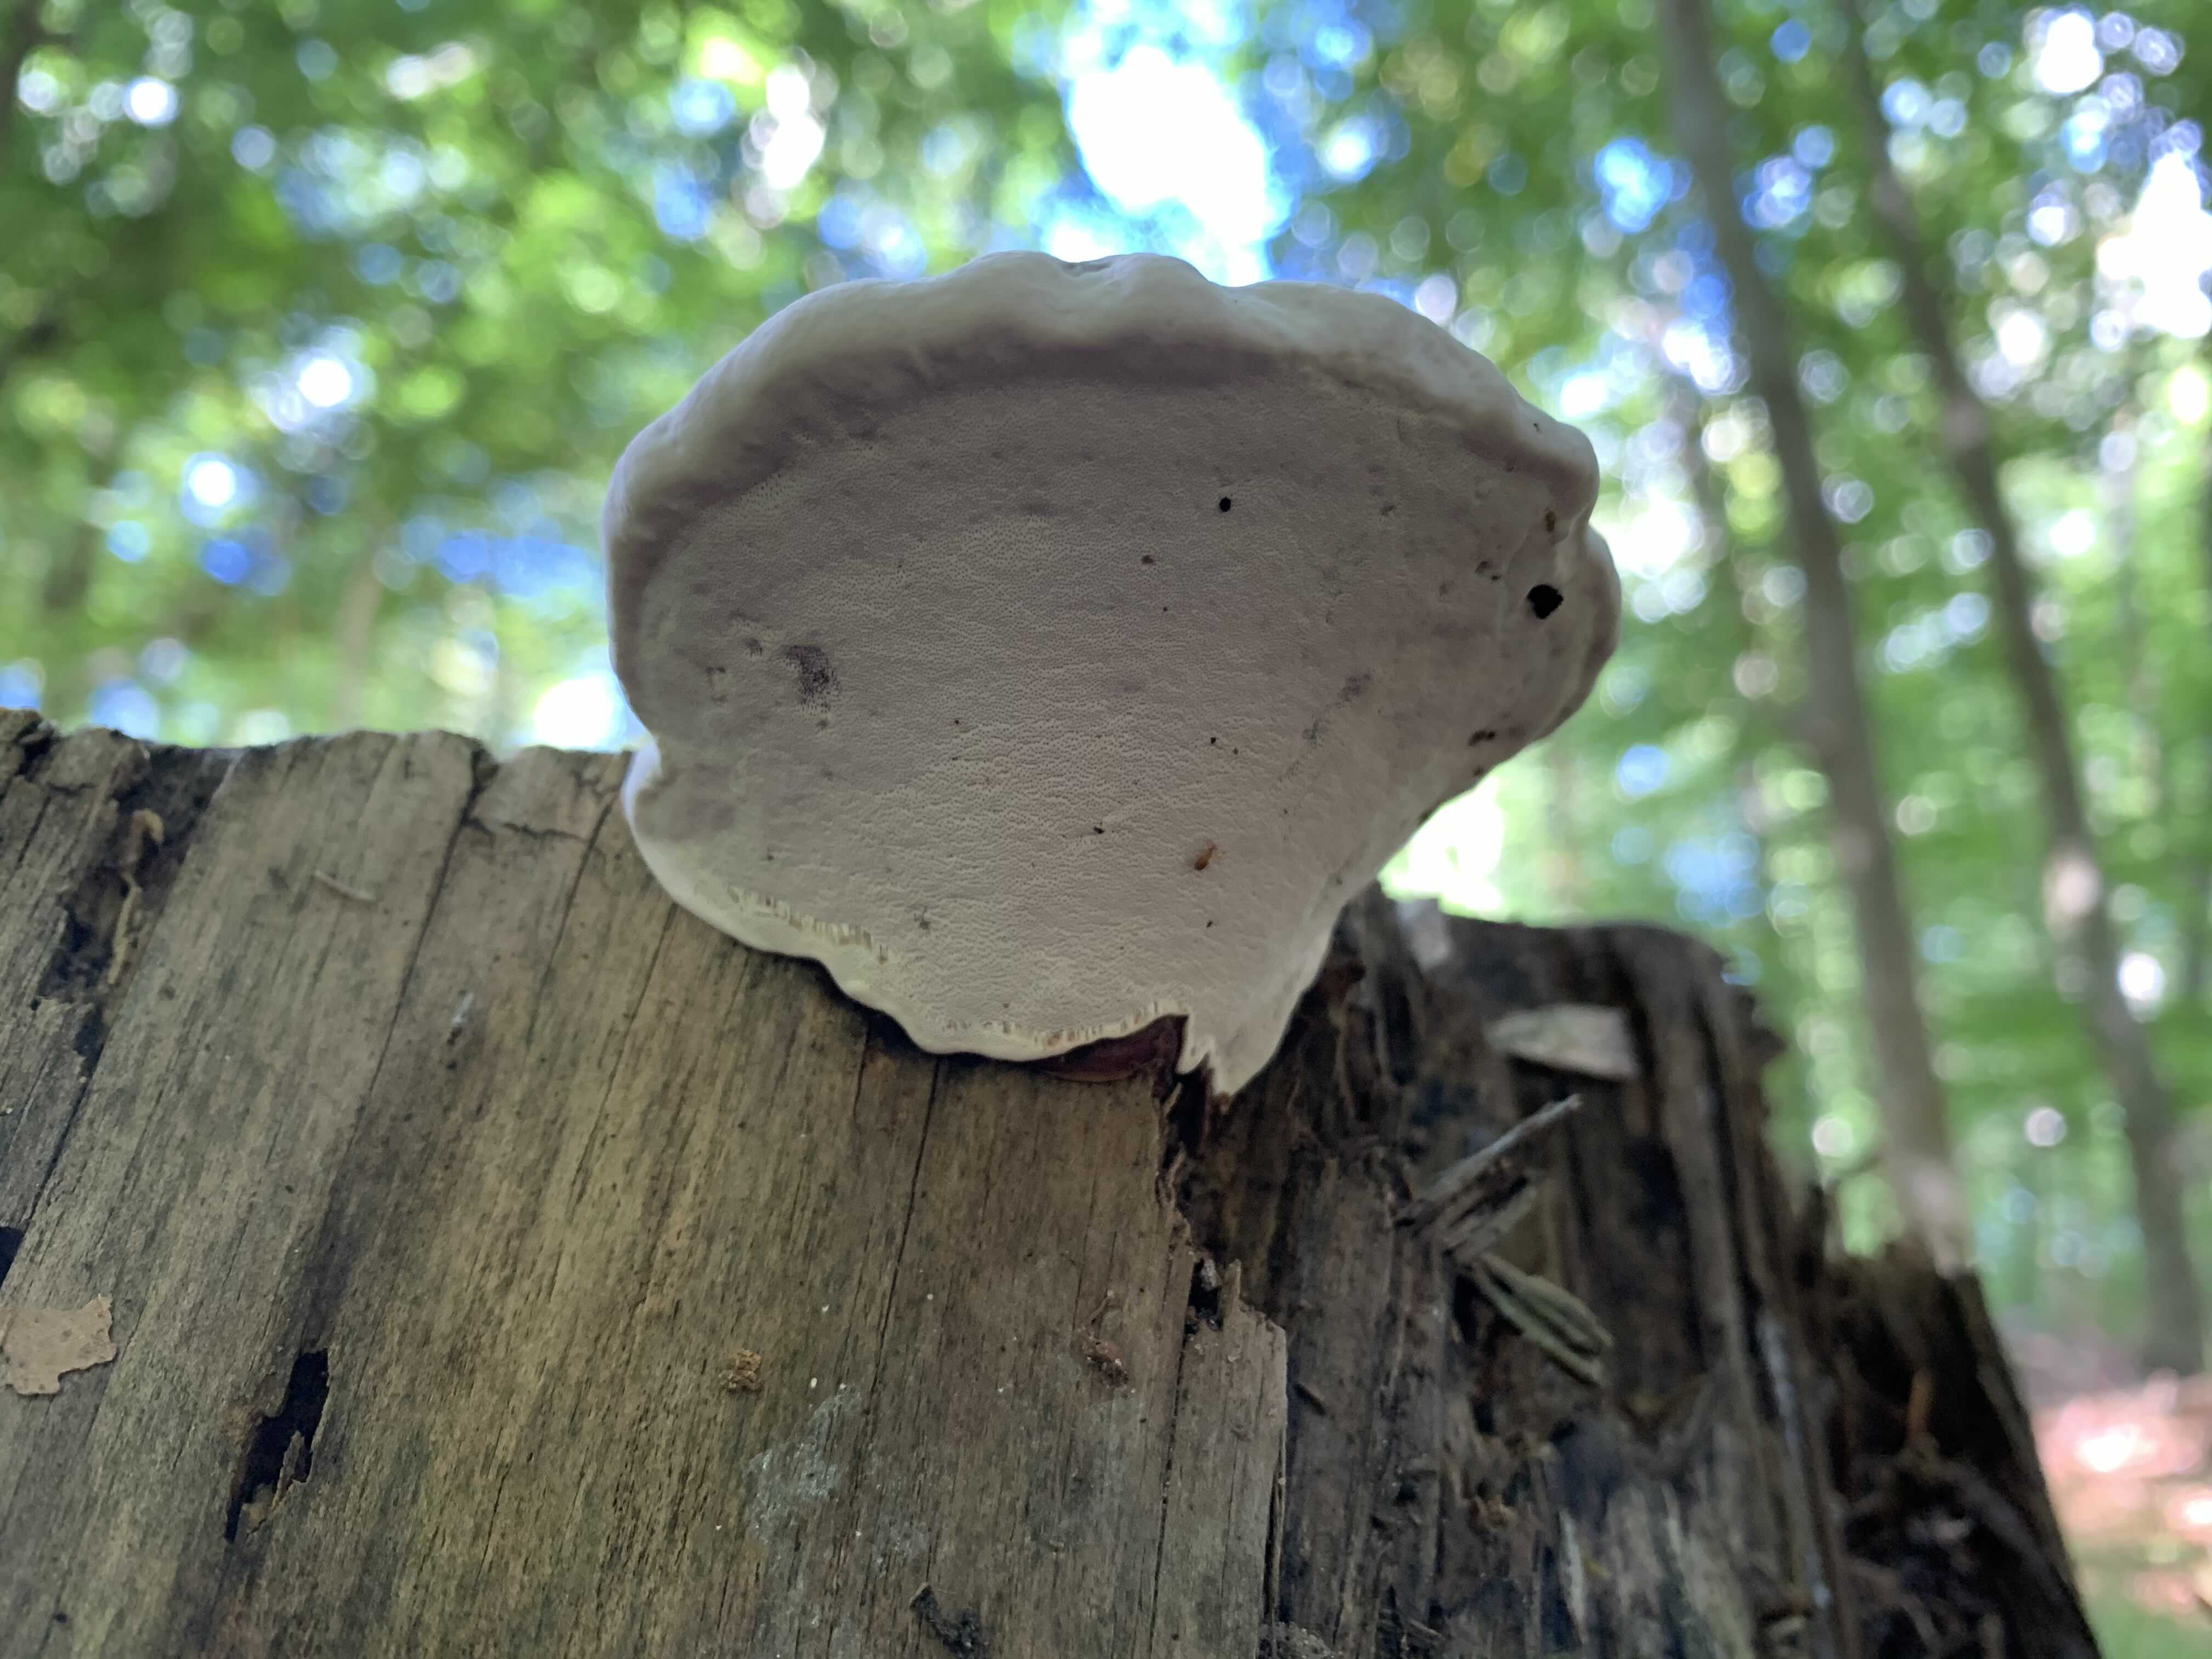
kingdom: Fungi
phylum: Basidiomycota
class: Agaricomycetes
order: Polyporales
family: Polyporaceae
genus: Ganoderma
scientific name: Ganoderma applanatum
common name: flad lakporesvamp
